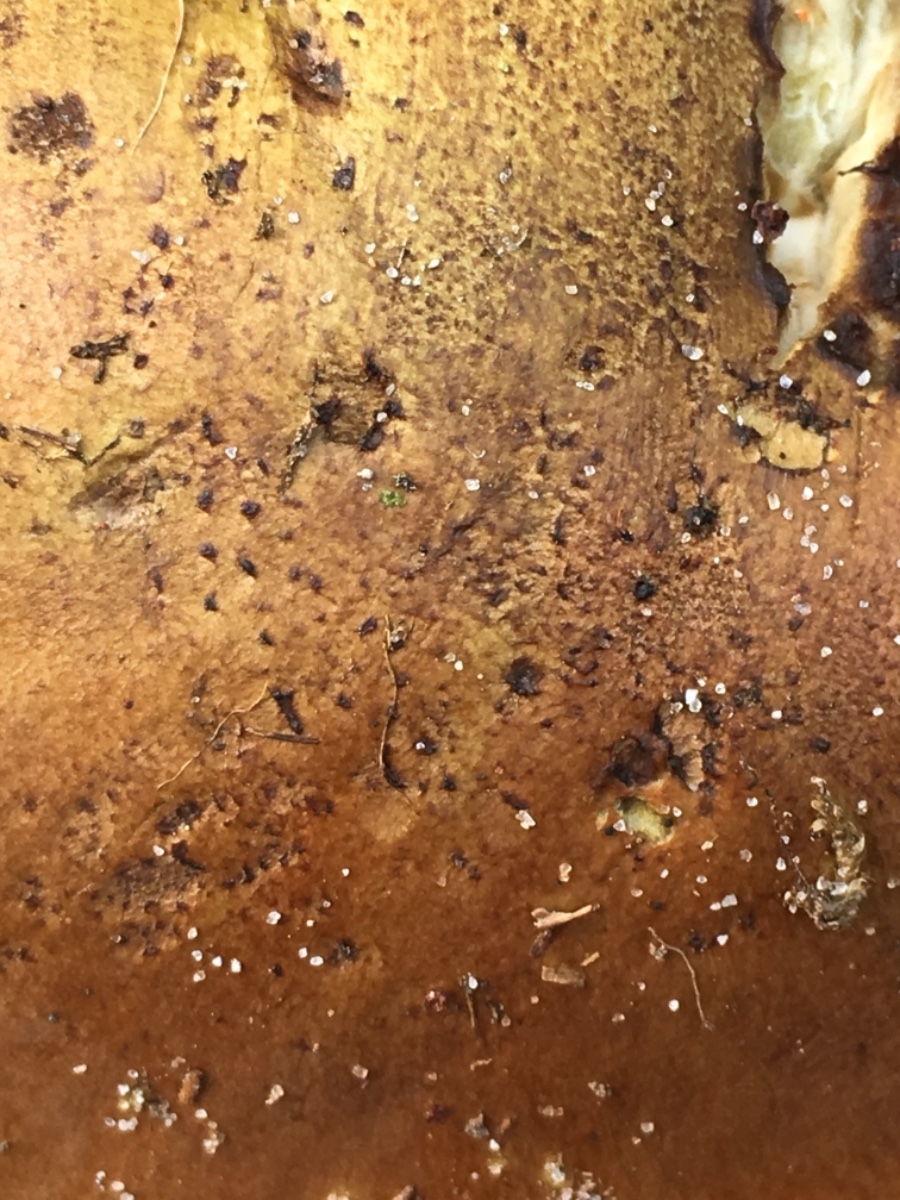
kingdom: Fungi
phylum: Basidiomycota
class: Agaricomycetes
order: Agaricales
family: Tricholomataceae
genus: Tricholoma
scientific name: Tricholoma equestre
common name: ægte ridderhat
